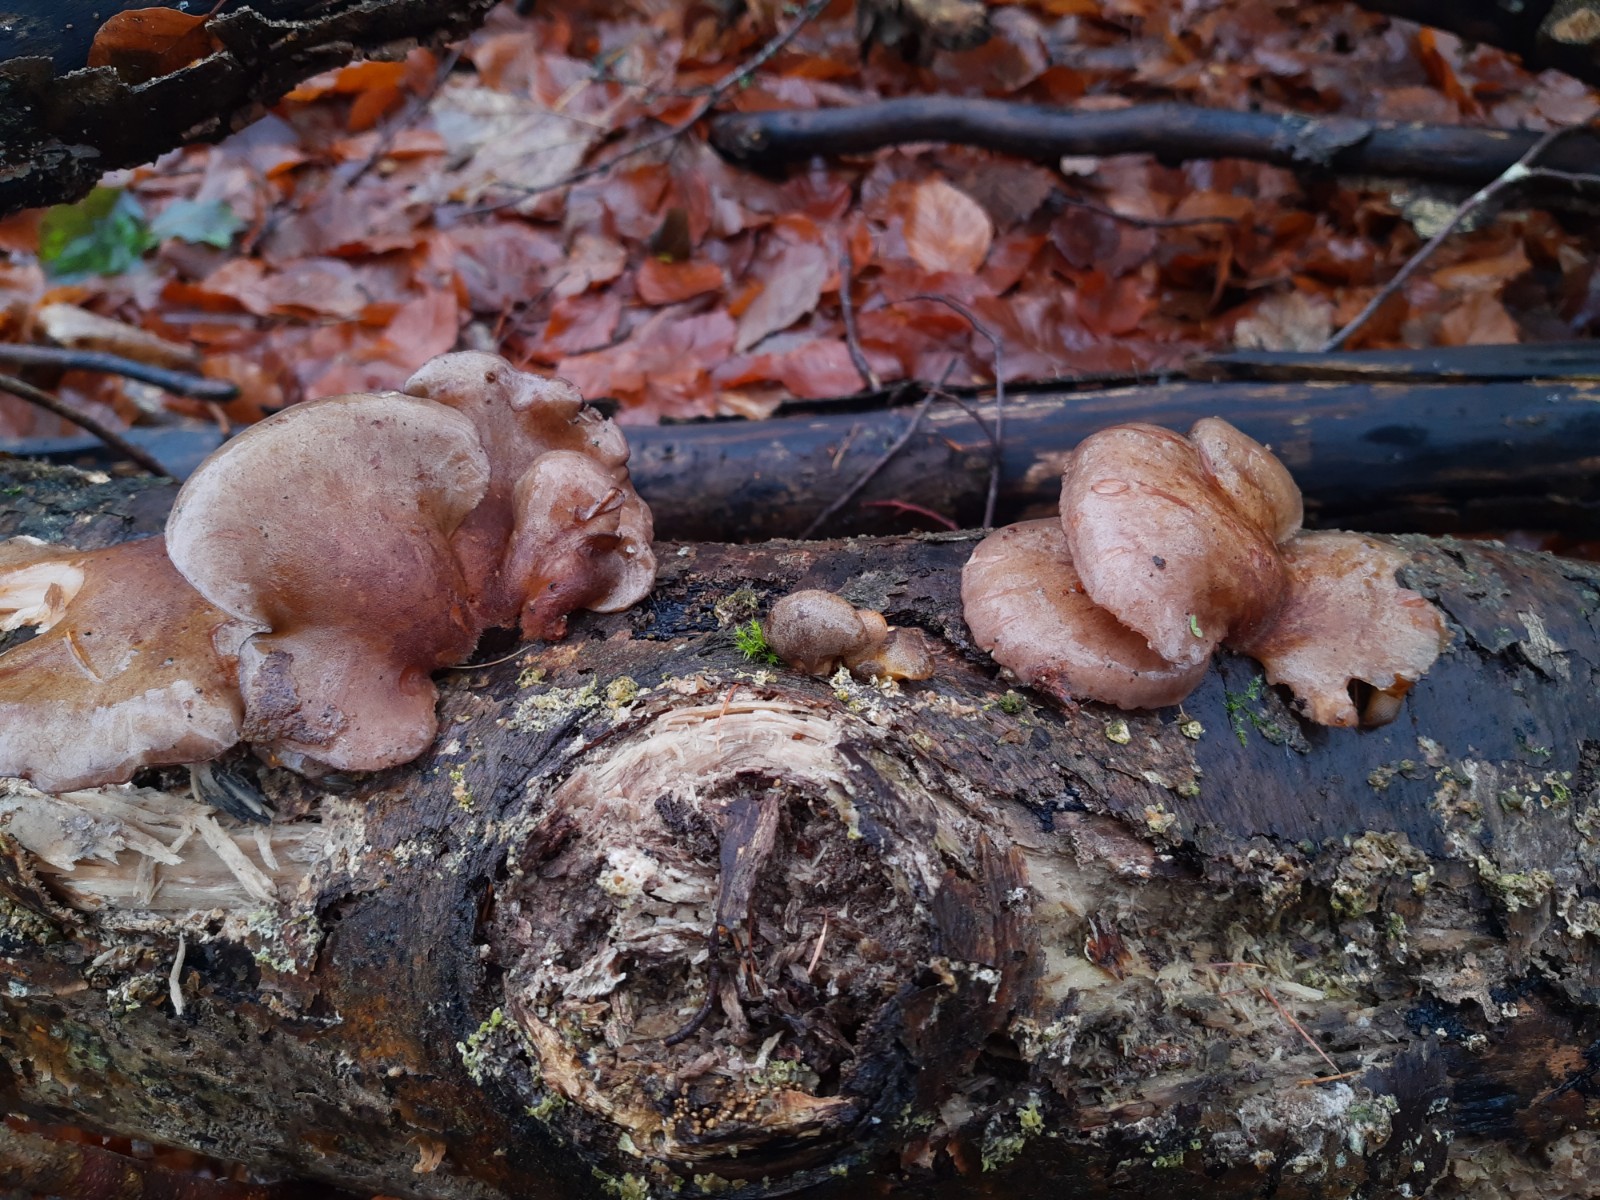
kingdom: Fungi
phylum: Basidiomycota
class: Agaricomycetes
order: Agaricales
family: Sarcomyxaceae
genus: Sarcomyxa
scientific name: Sarcomyxa serotina
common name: gummihat
